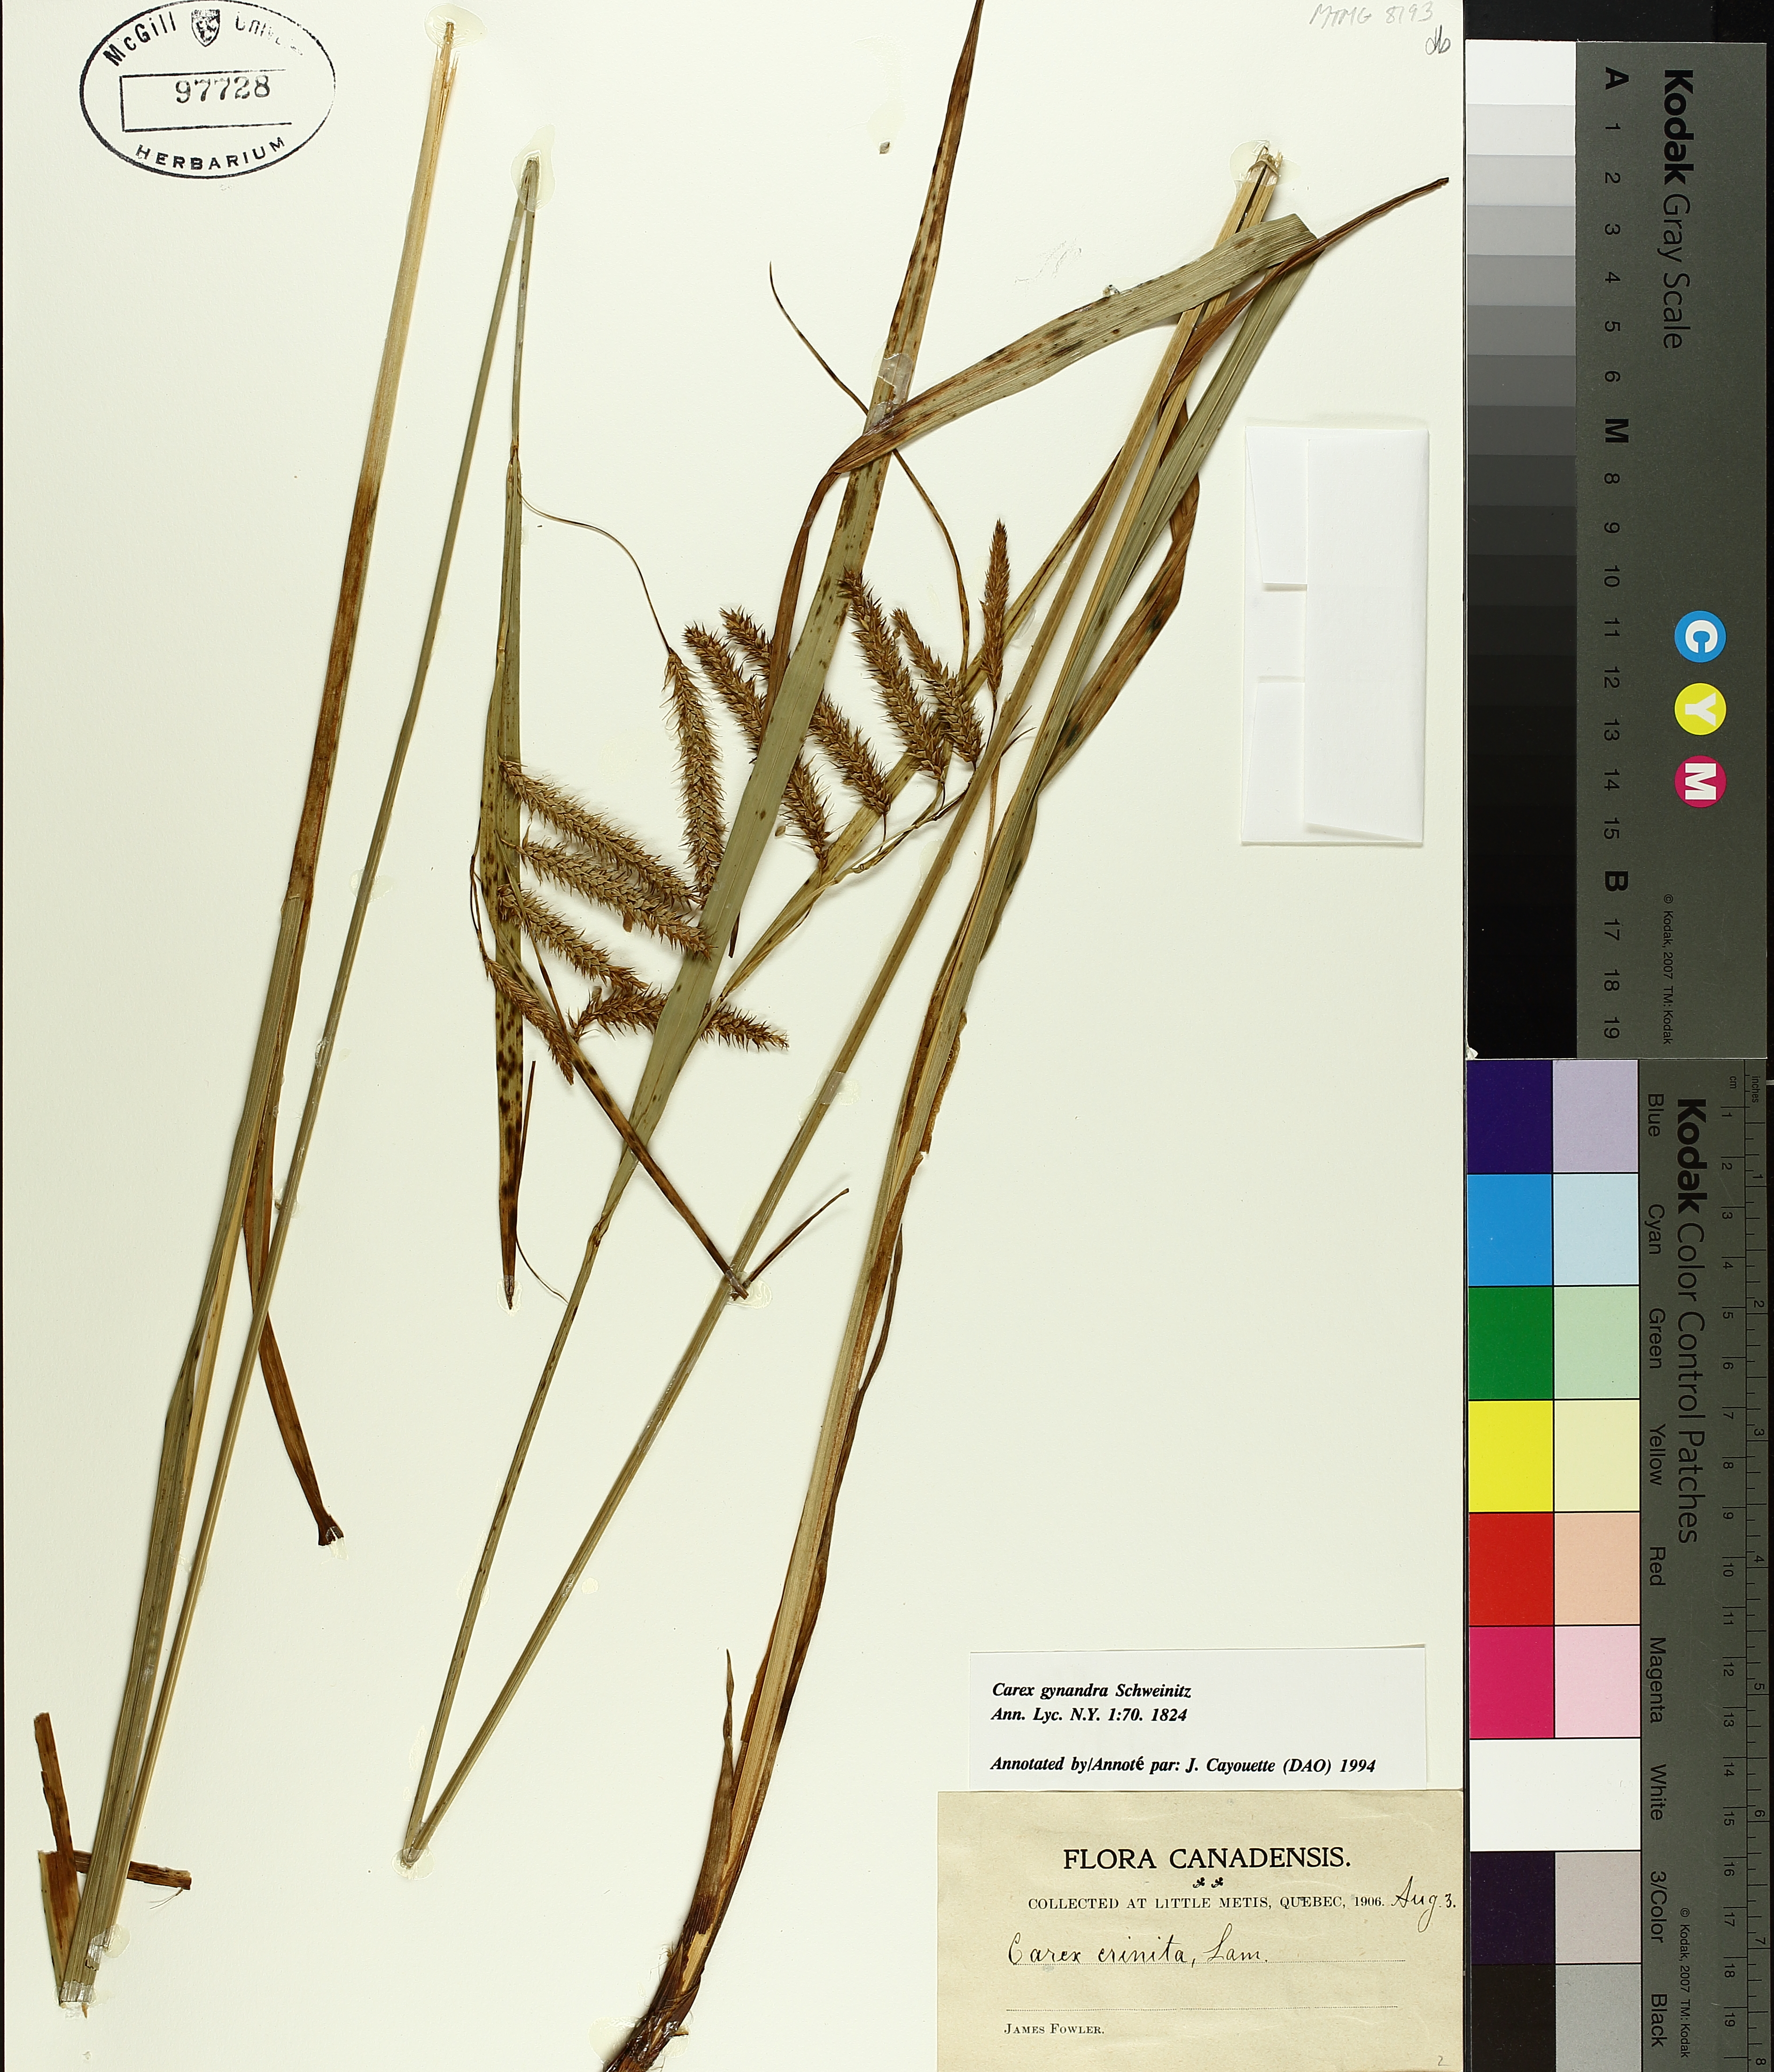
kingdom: Plantae
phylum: Tracheophyta
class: Liliopsida
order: Poales
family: Cyperaceae
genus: Carex
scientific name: Carex gynandra
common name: Nodding sedge
